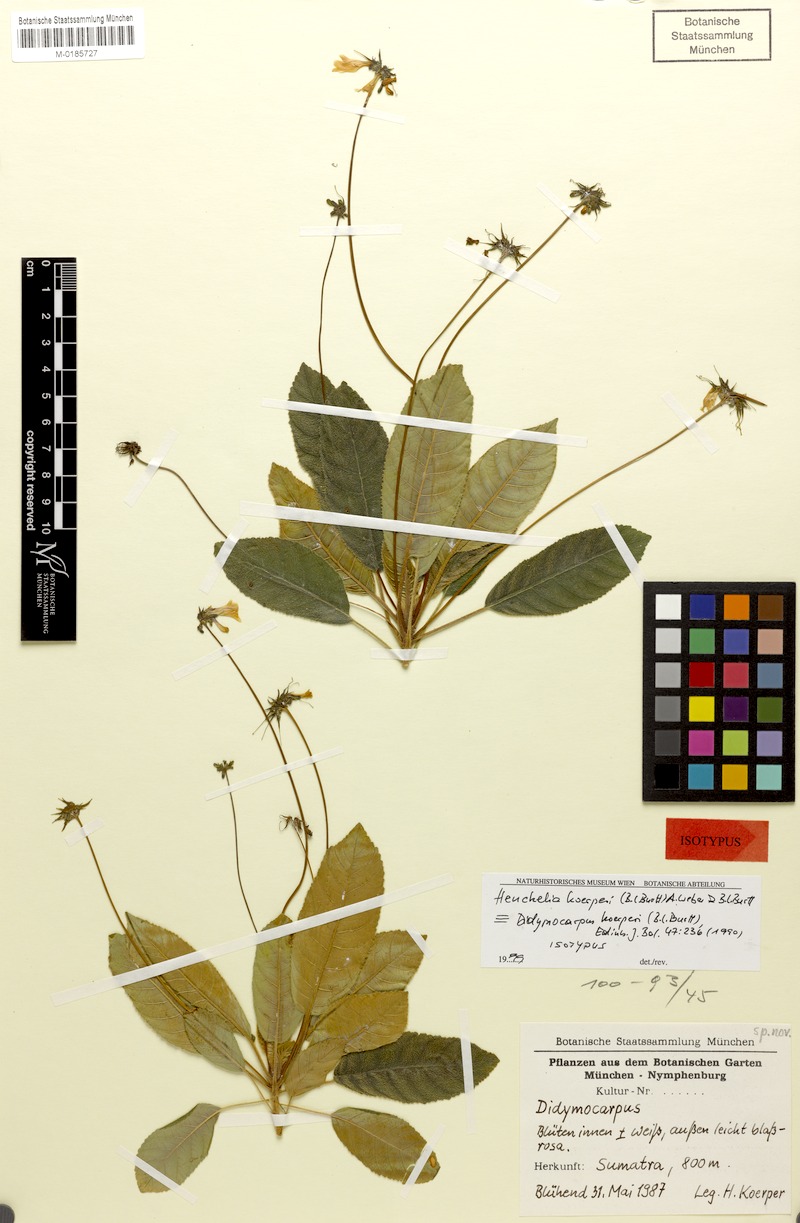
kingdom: Plantae
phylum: Tracheophyta
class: Magnoliopsida
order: Lamiales
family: Gesneriaceae
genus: Codonoboea
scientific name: Codonoboea koerperi
